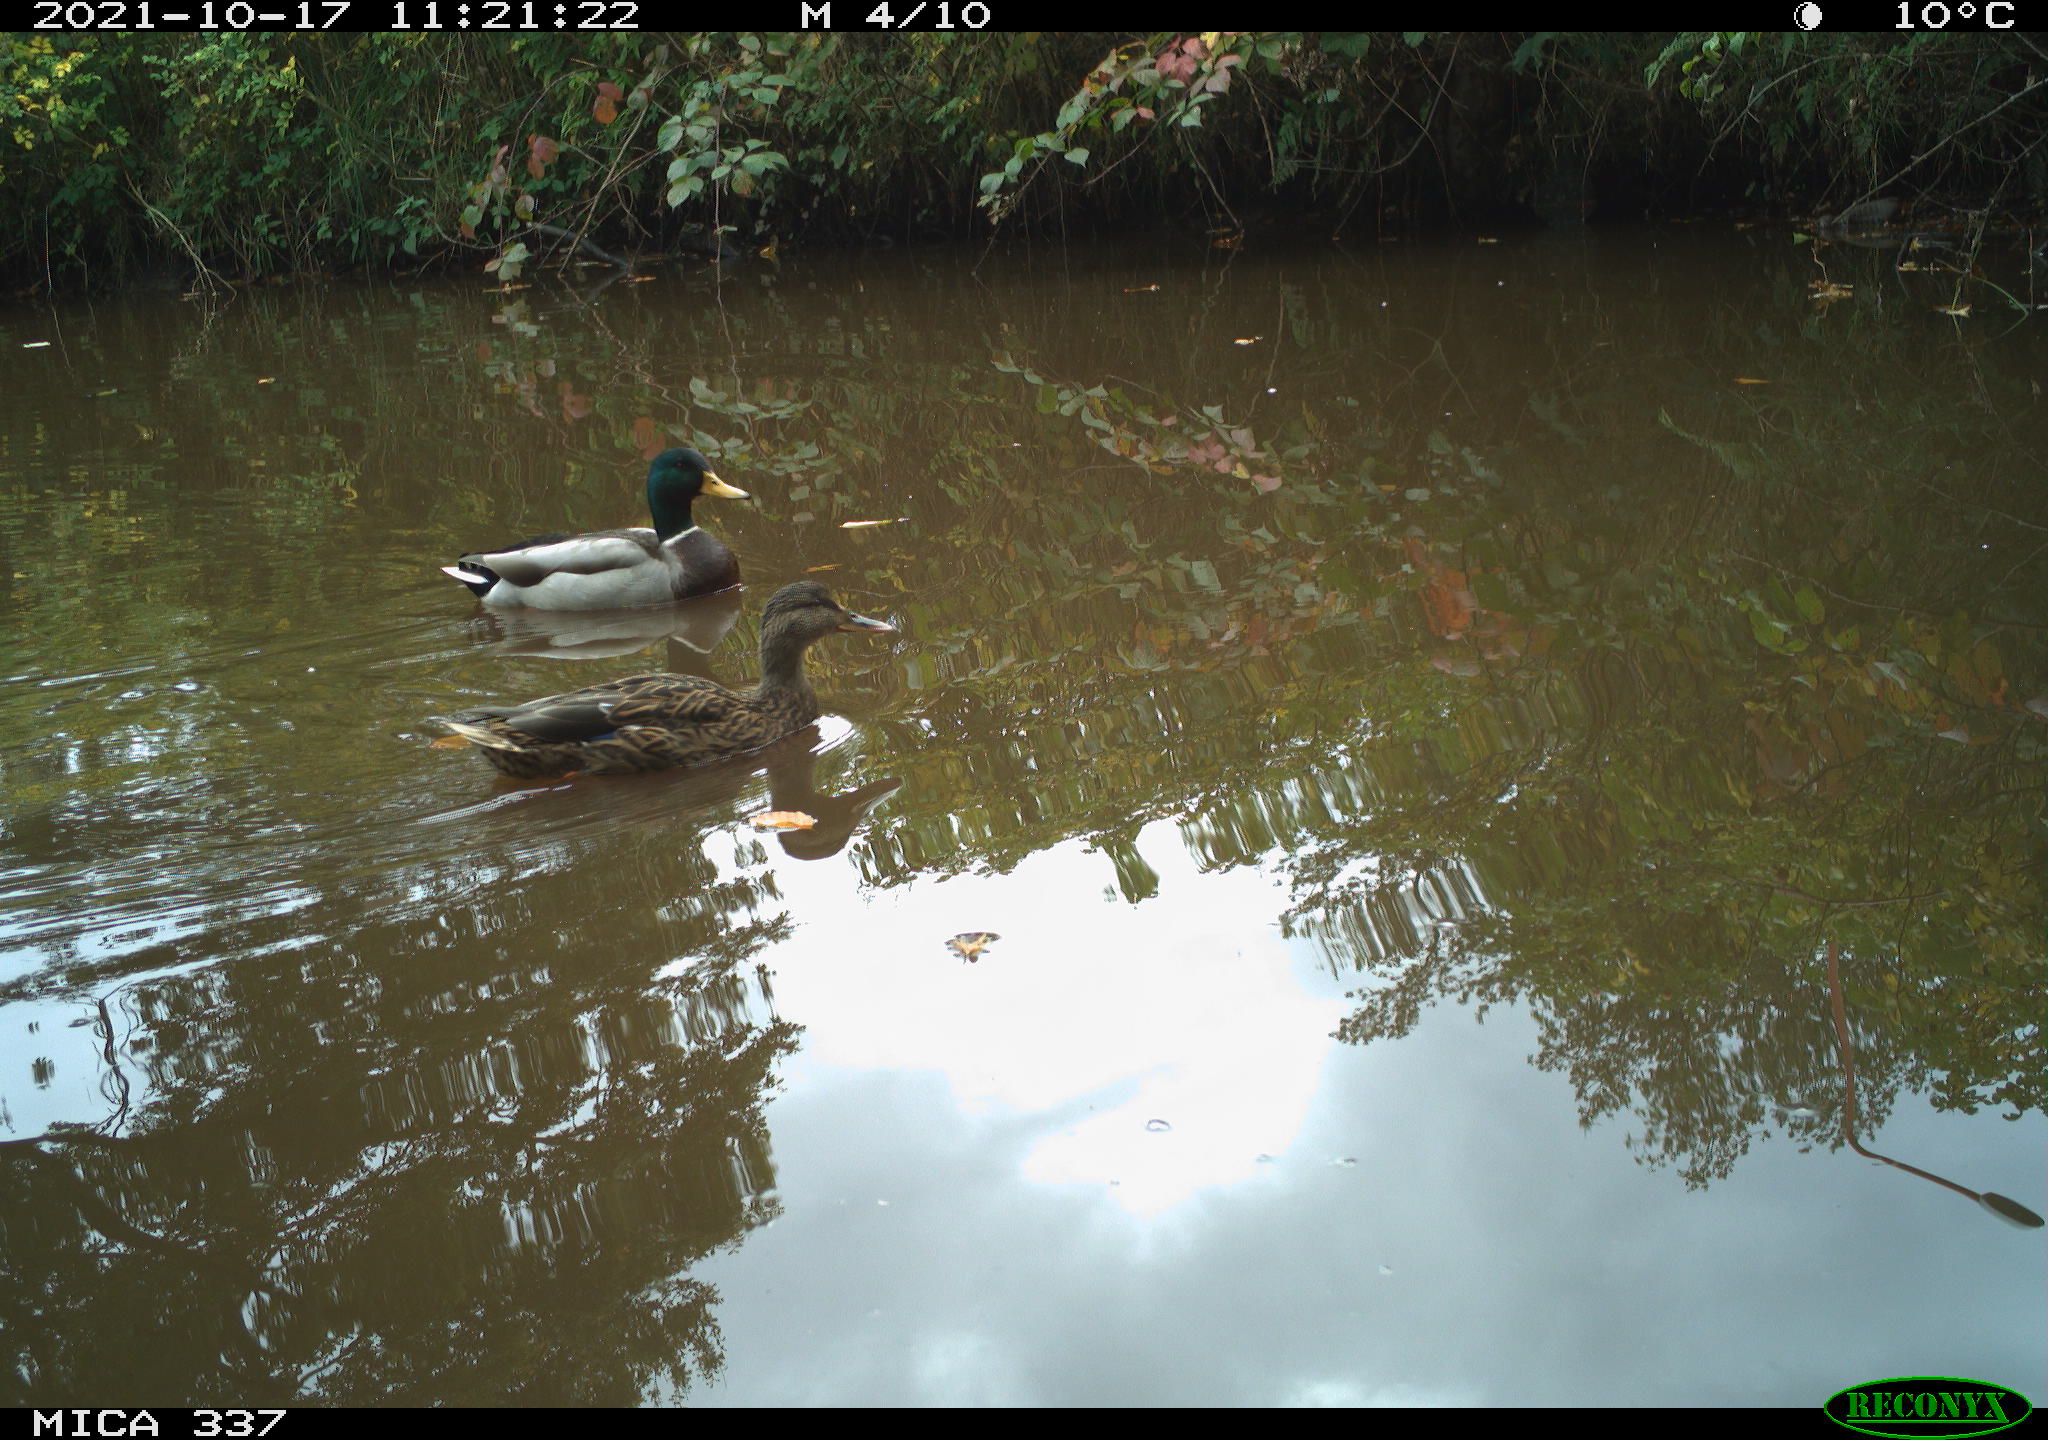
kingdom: Animalia
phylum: Chordata
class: Aves
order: Anseriformes
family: Anatidae
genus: Anas
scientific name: Anas platyrhynchos
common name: Mallard
